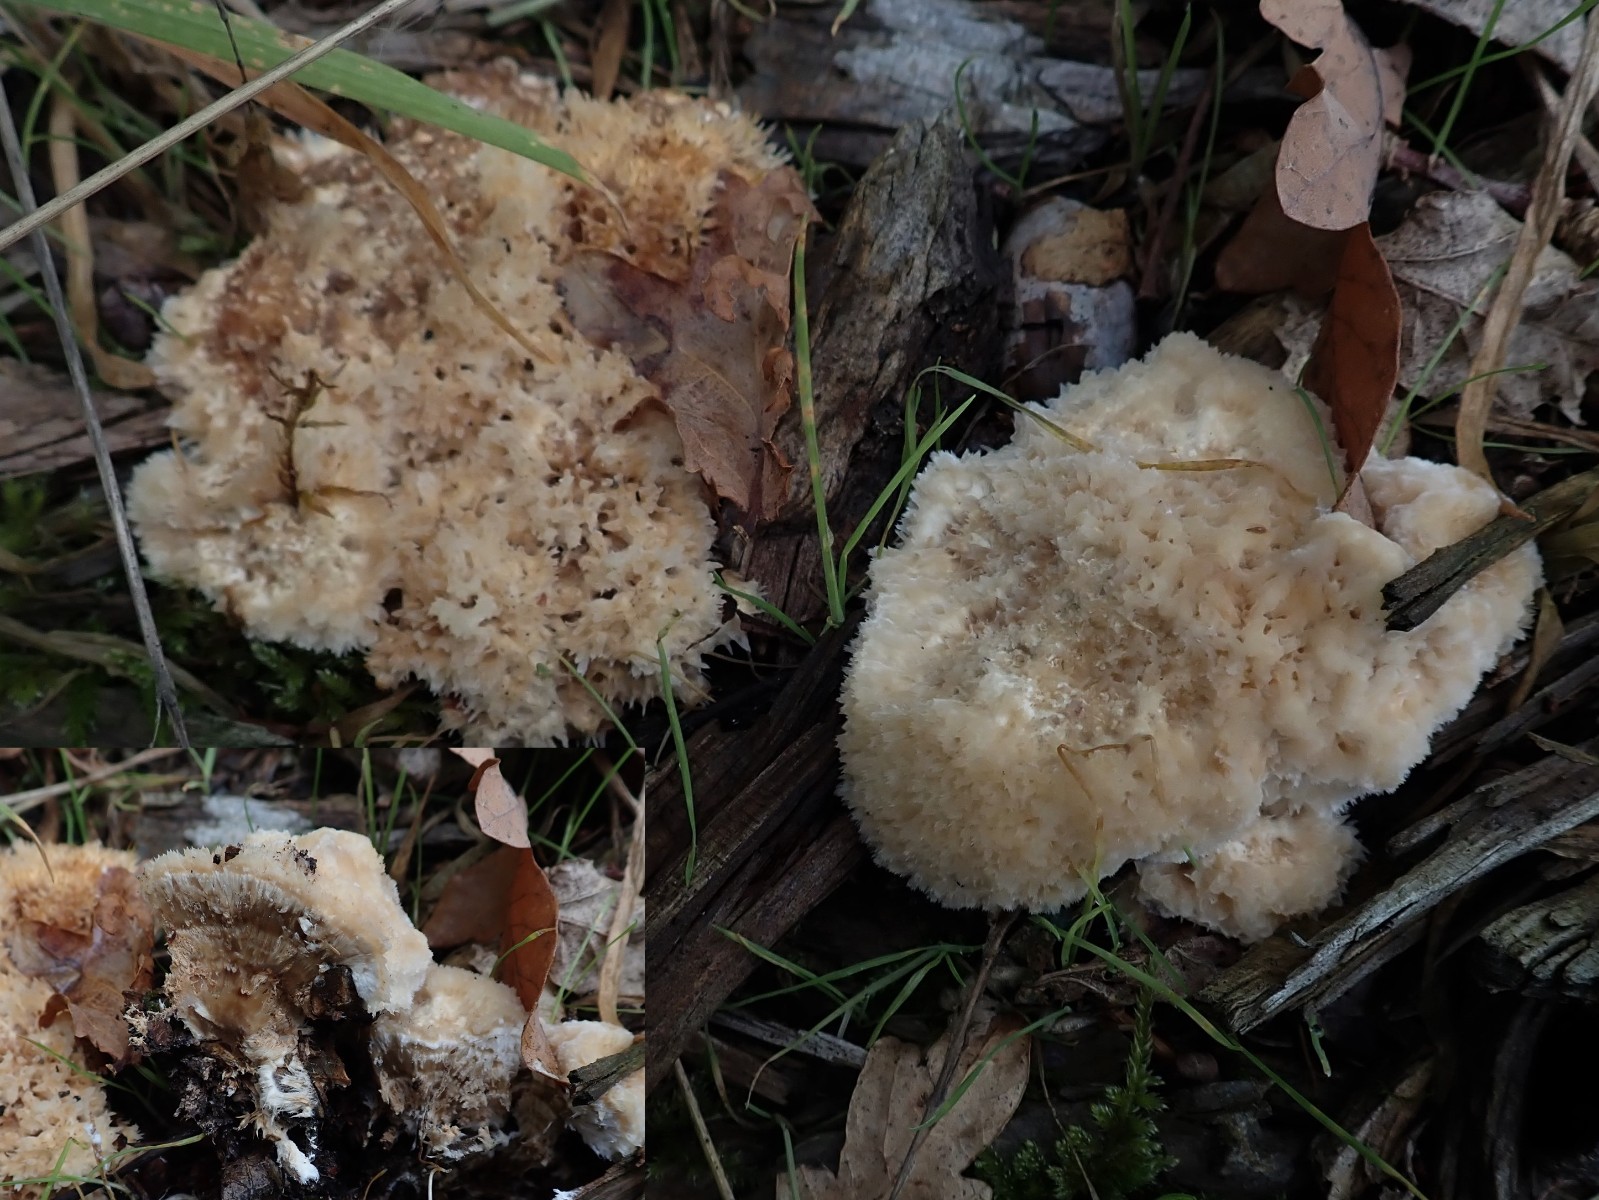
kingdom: Fungi
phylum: Basidiomycota
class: Agaricomycetes
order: Polyporales
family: Dacryobolaceae
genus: Postia
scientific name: Postia ptychogaster
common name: støvende kødporesvamp
